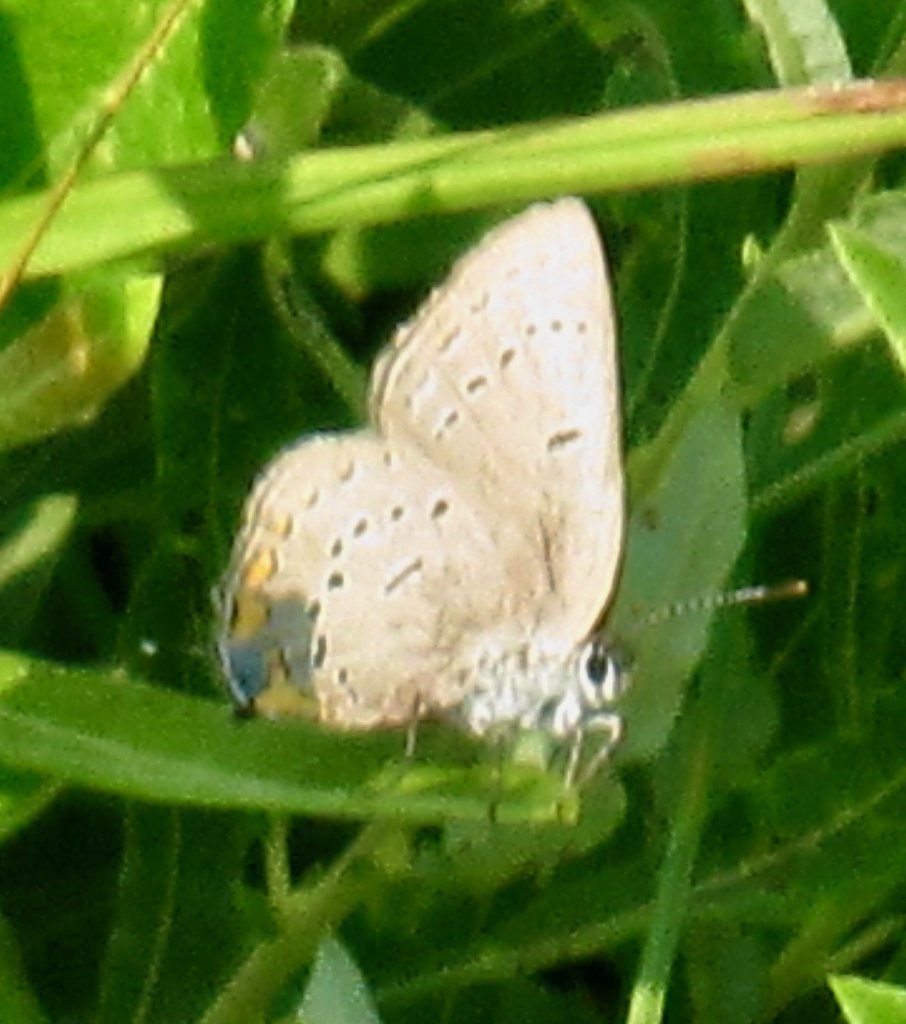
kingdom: Animalia
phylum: Arthropoda
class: Insecta
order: Lepidoptera
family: Lycaenidae
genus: Strymon
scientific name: Strymon acadica
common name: Acadian Hairstreak
